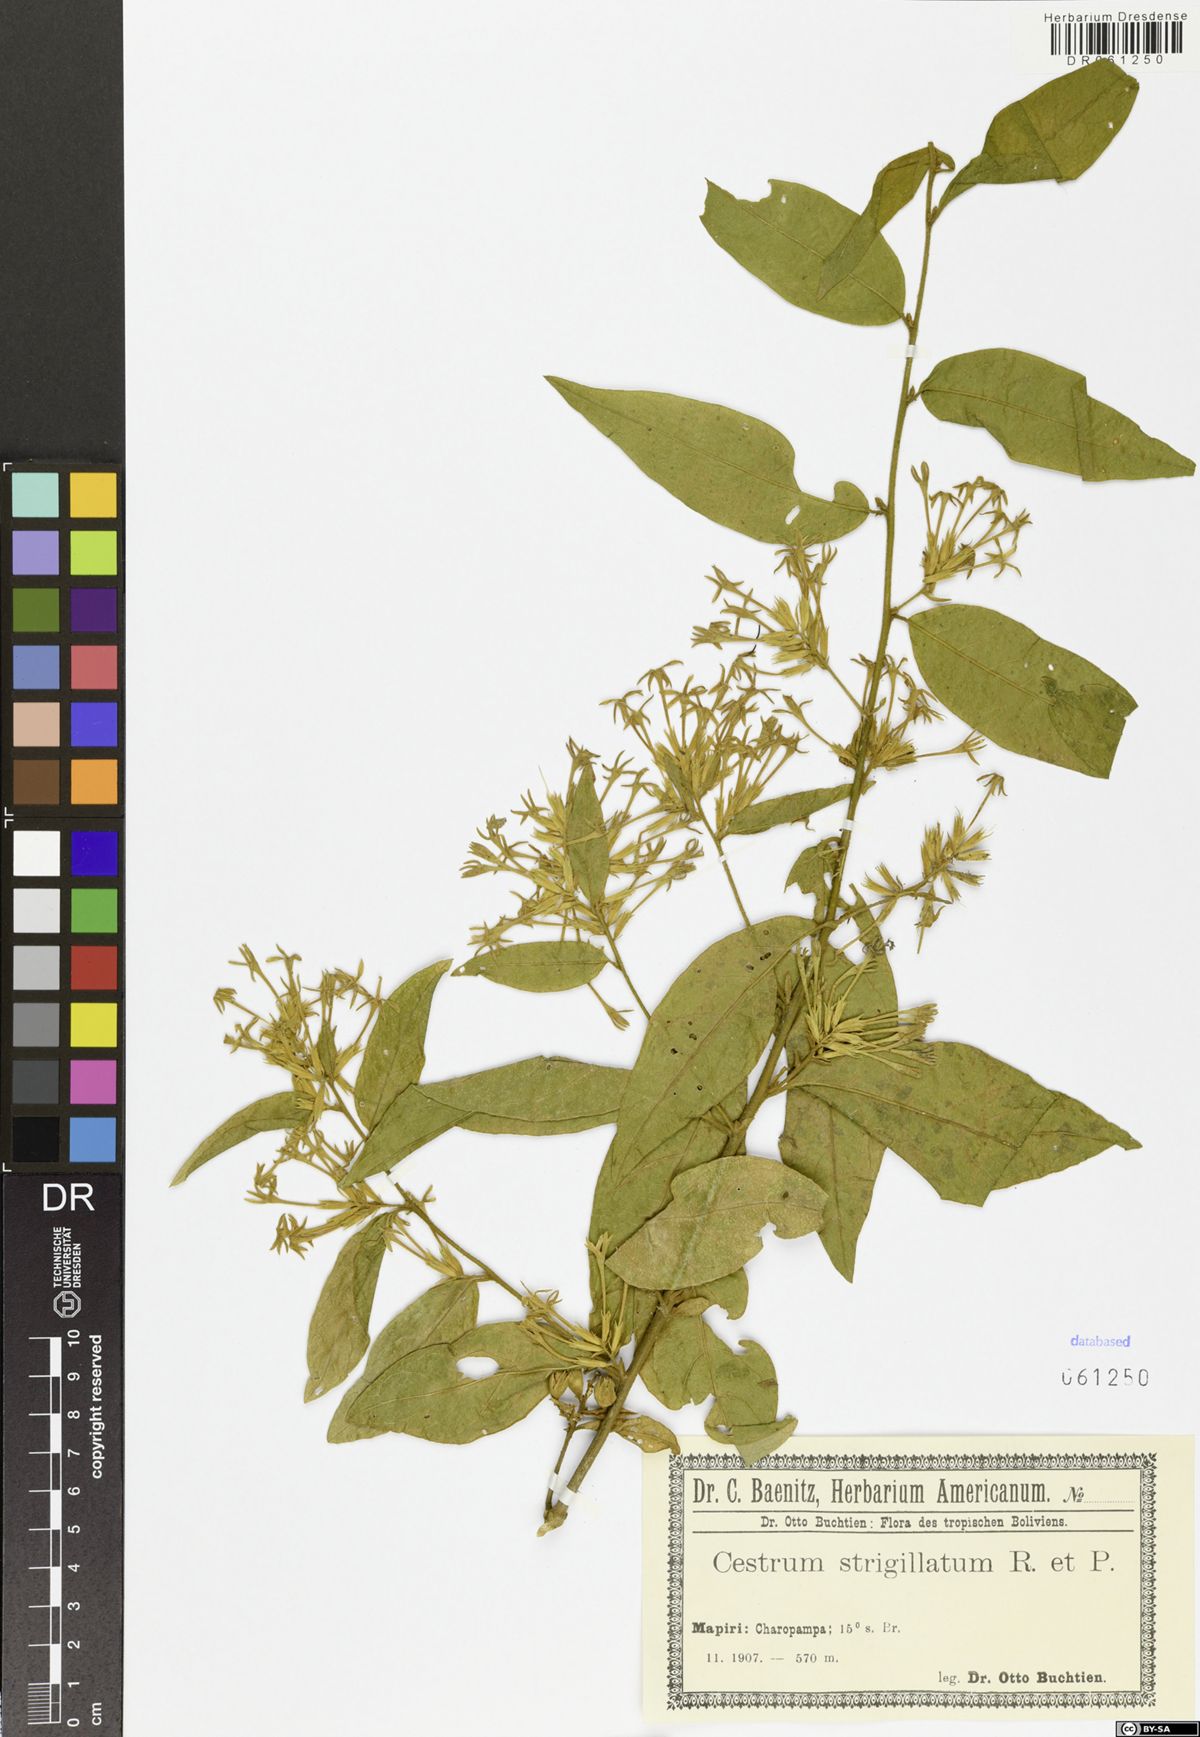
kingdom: Plantae
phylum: Tracheophyta
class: Magnoliopsida
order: Solanales
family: Solanaceae
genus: Cestrum
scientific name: Cestrum strigillatum
